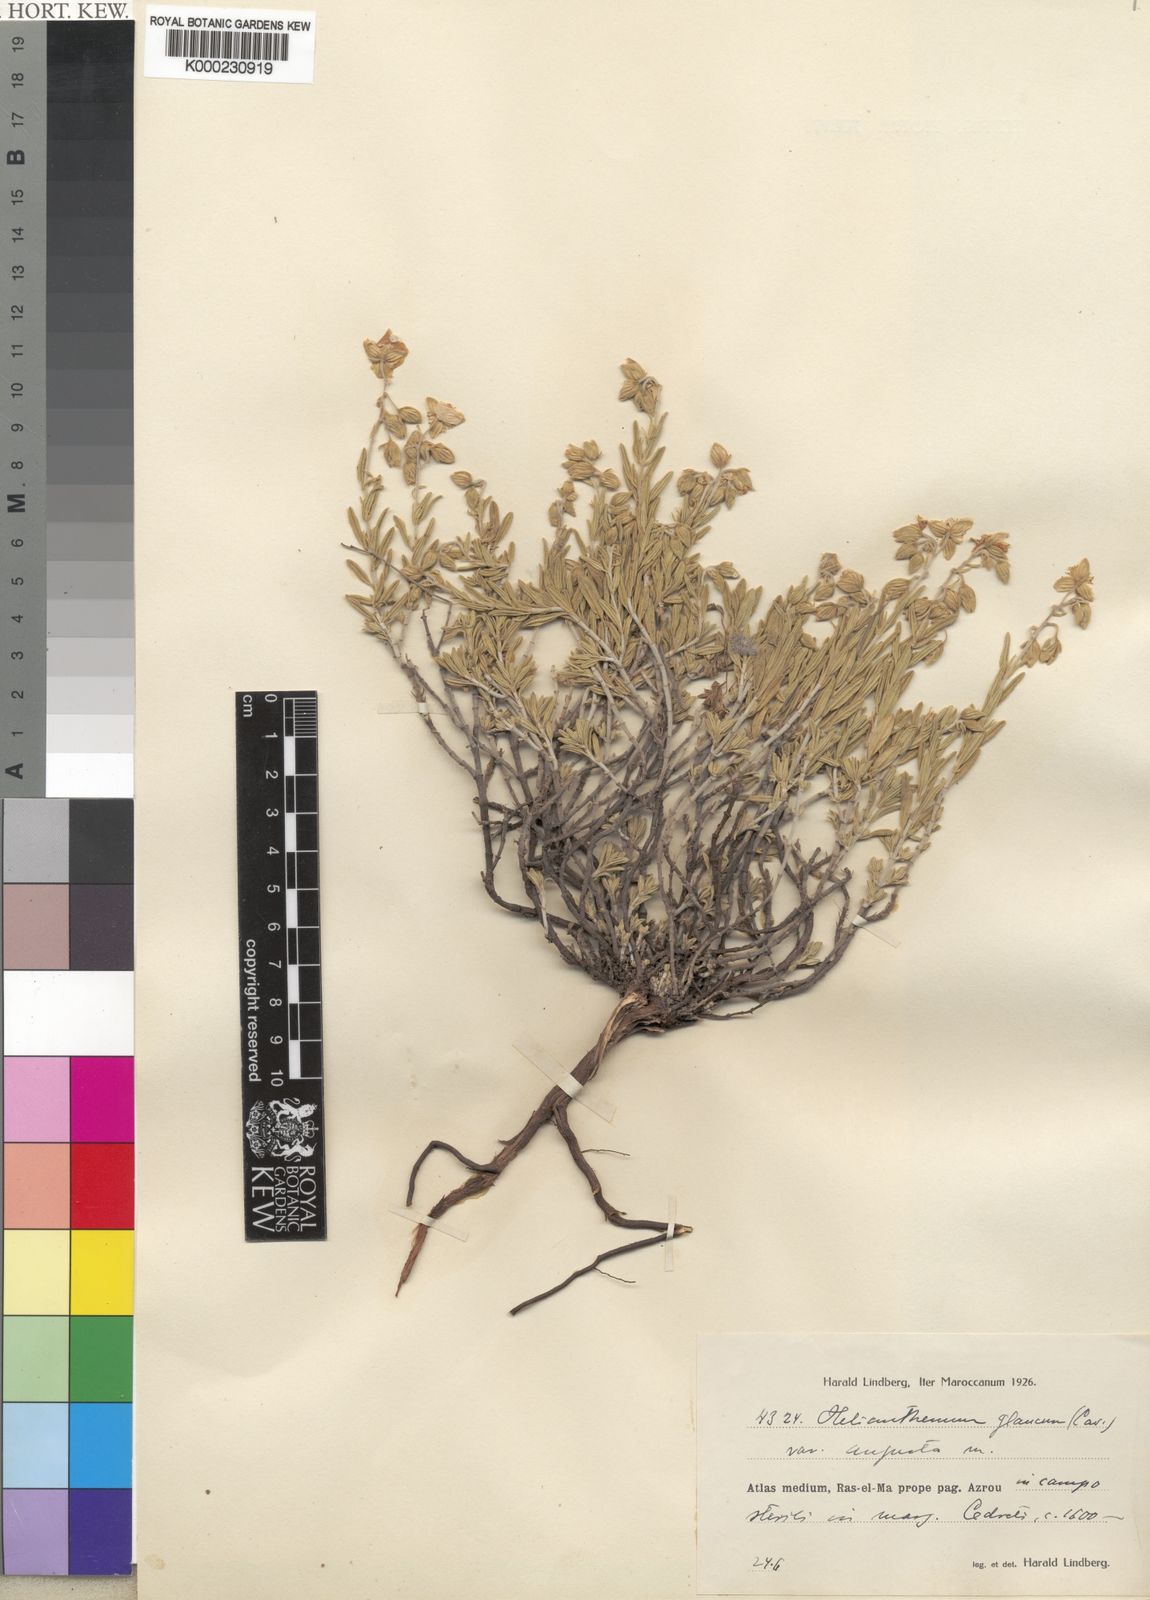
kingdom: Plantae
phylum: Tracheophyta
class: Magnoliopsida
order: Malvales
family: Cistaceae
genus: Helianthemum
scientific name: Helianthemum croceum
